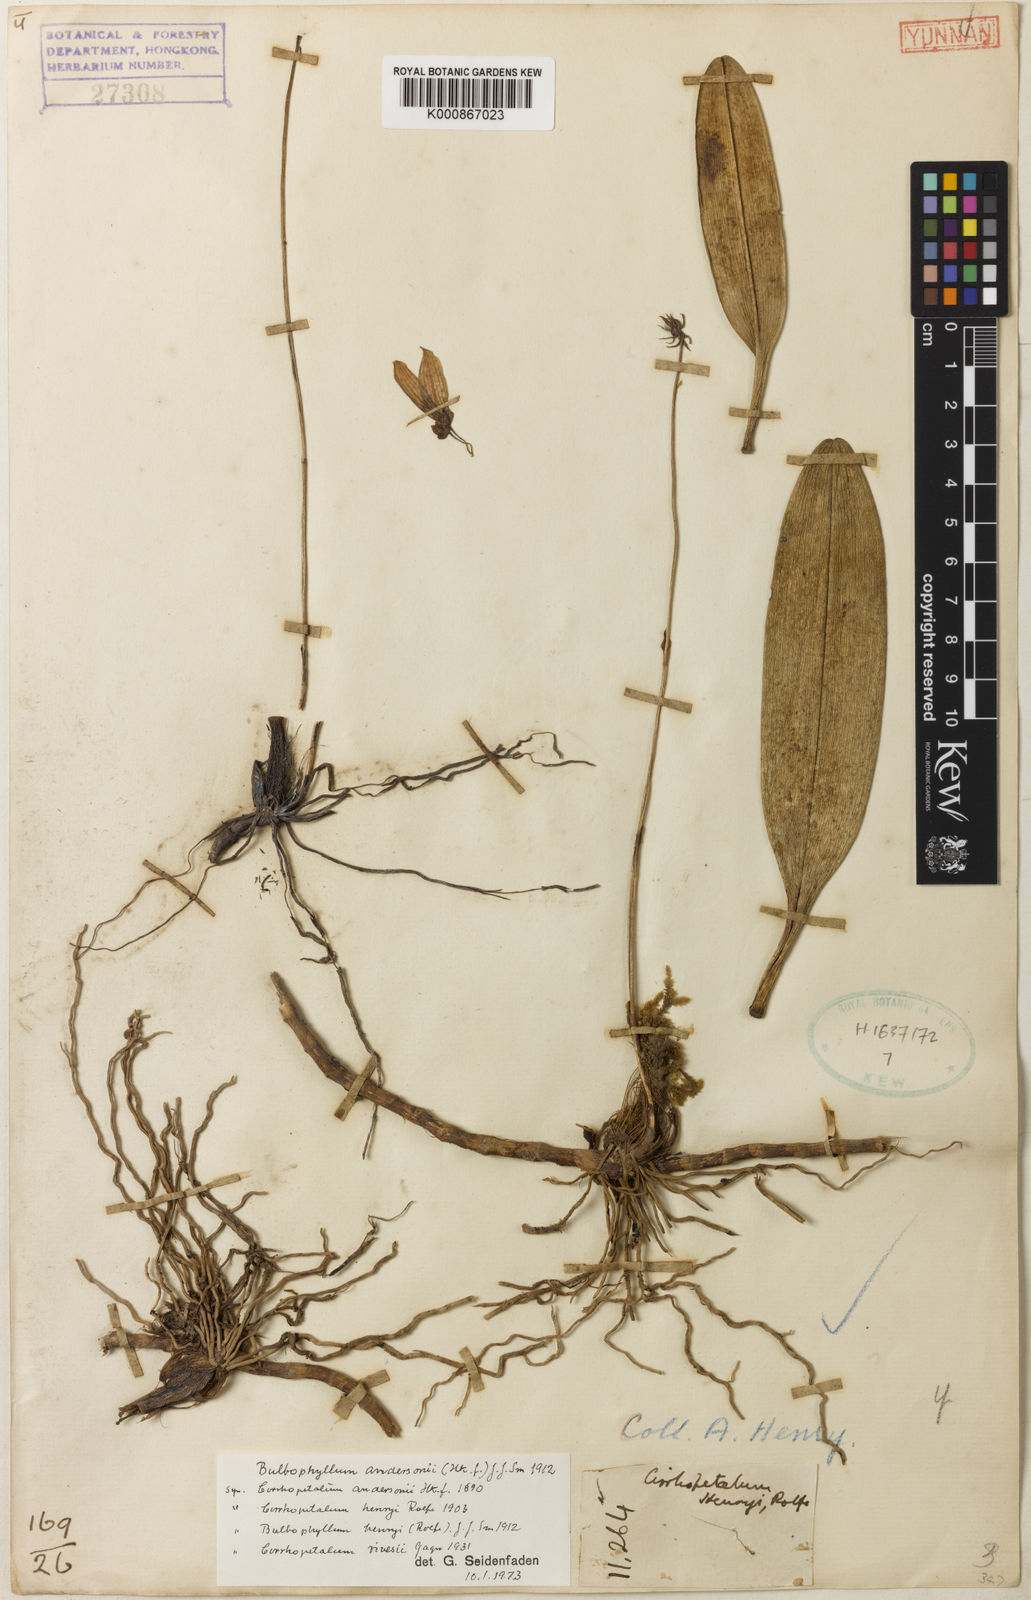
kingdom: Plantae
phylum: Tracheophyta
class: Liliopsida
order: Asparagales
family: Orchidaceae
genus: Bulbophyllum
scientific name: Bulbophyllum andersonii
